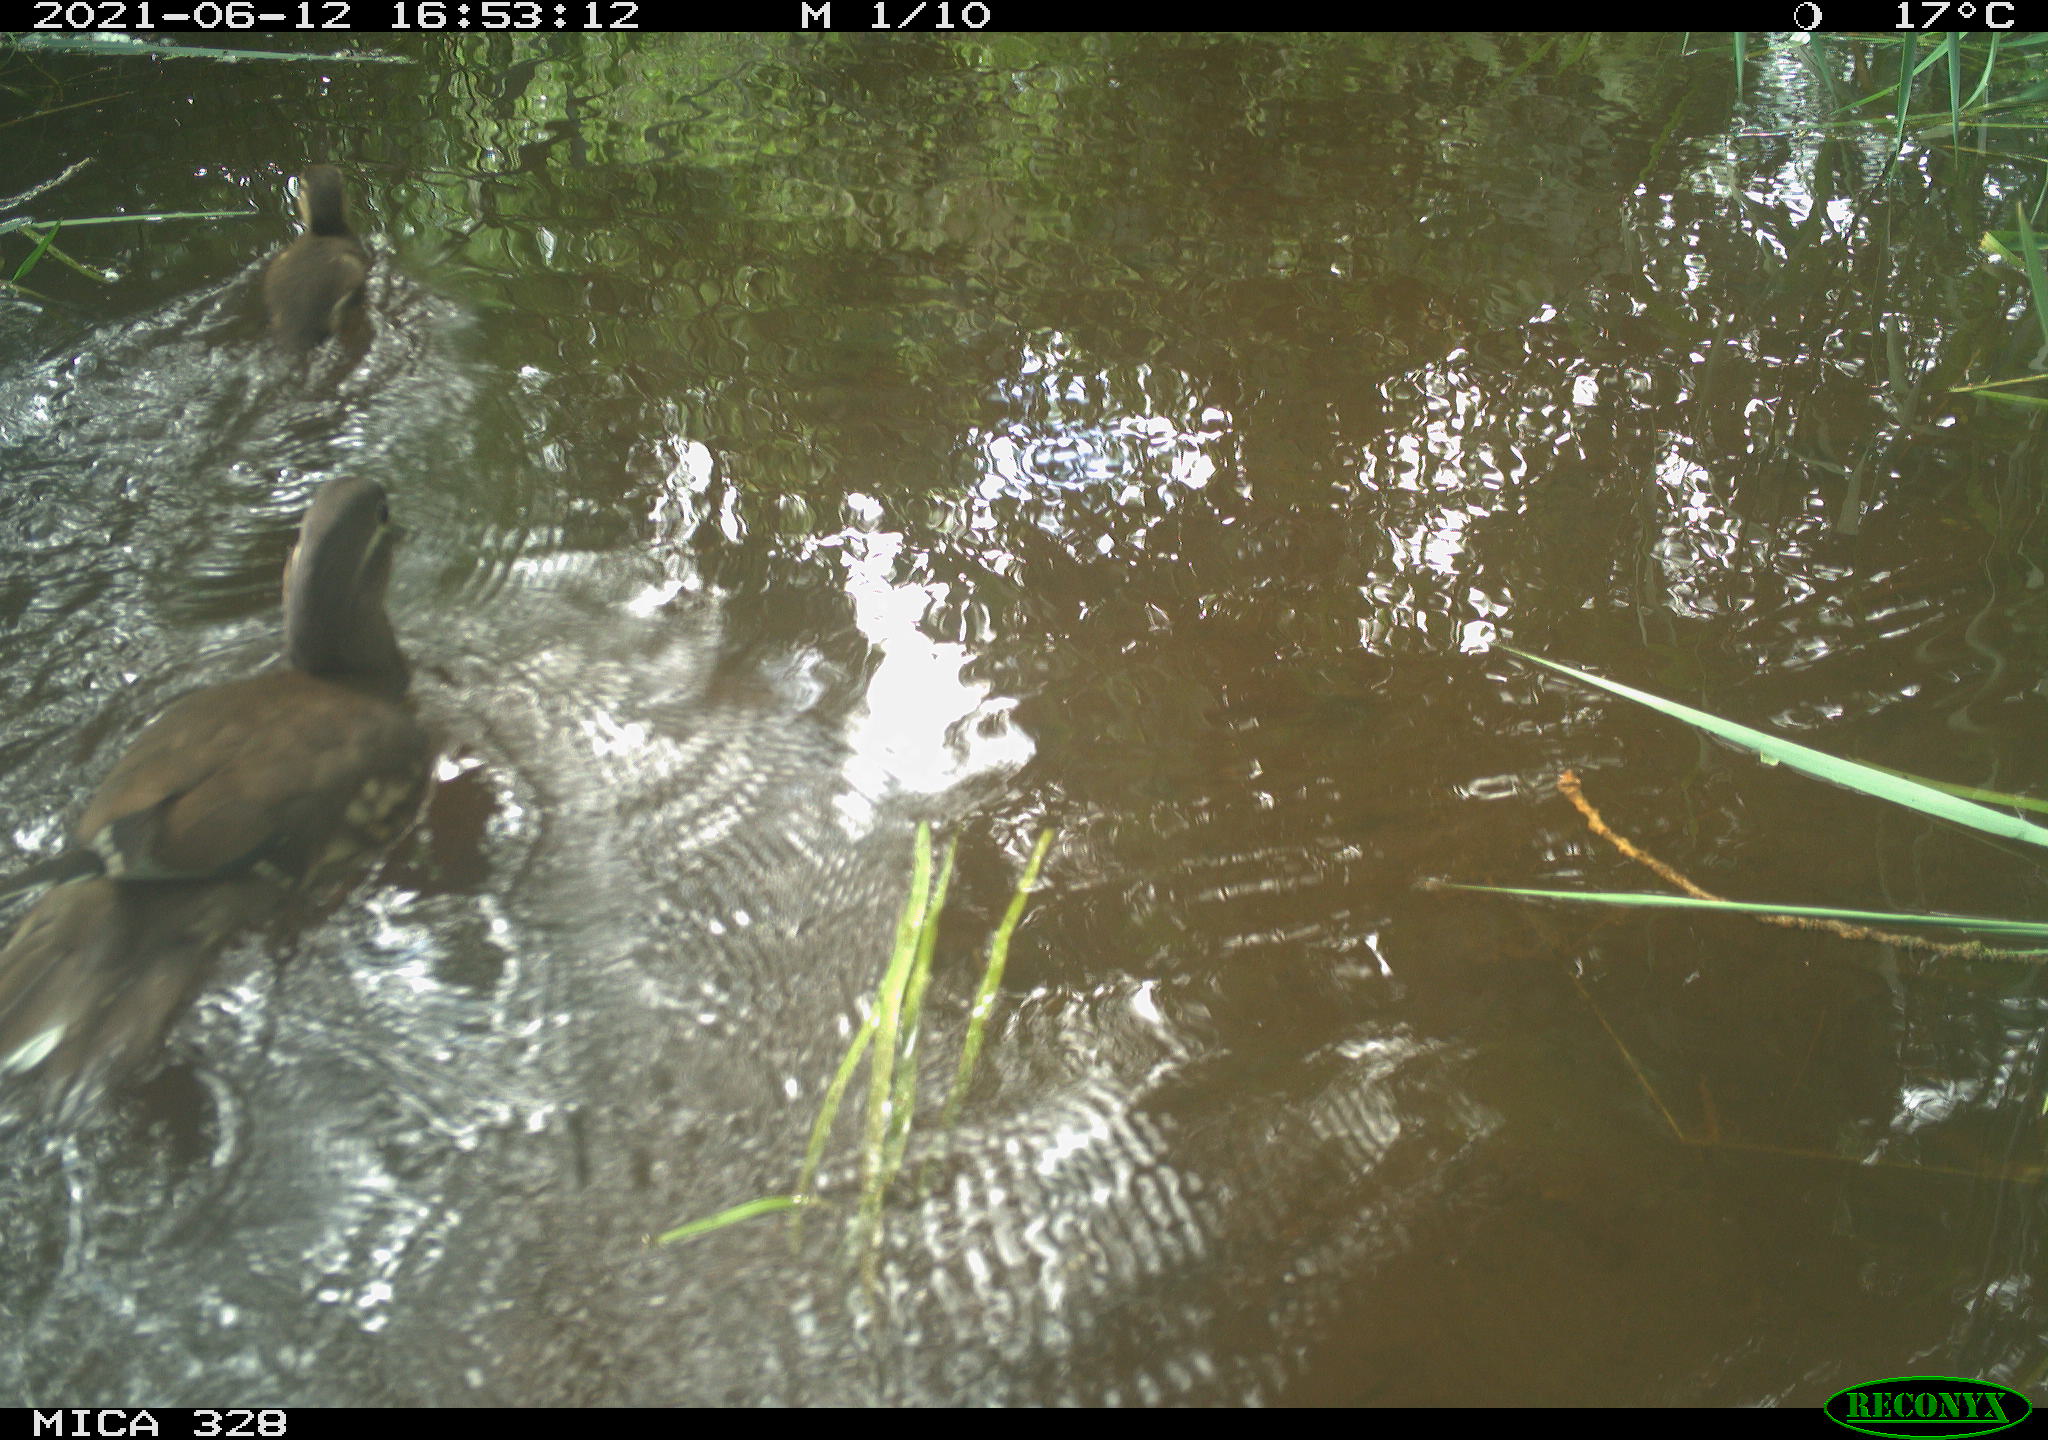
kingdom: Animalia
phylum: Chordata
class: Aves
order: Anseriformes
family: Anatidae
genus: Aix
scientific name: Aix galericulata
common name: Mandarin duck
